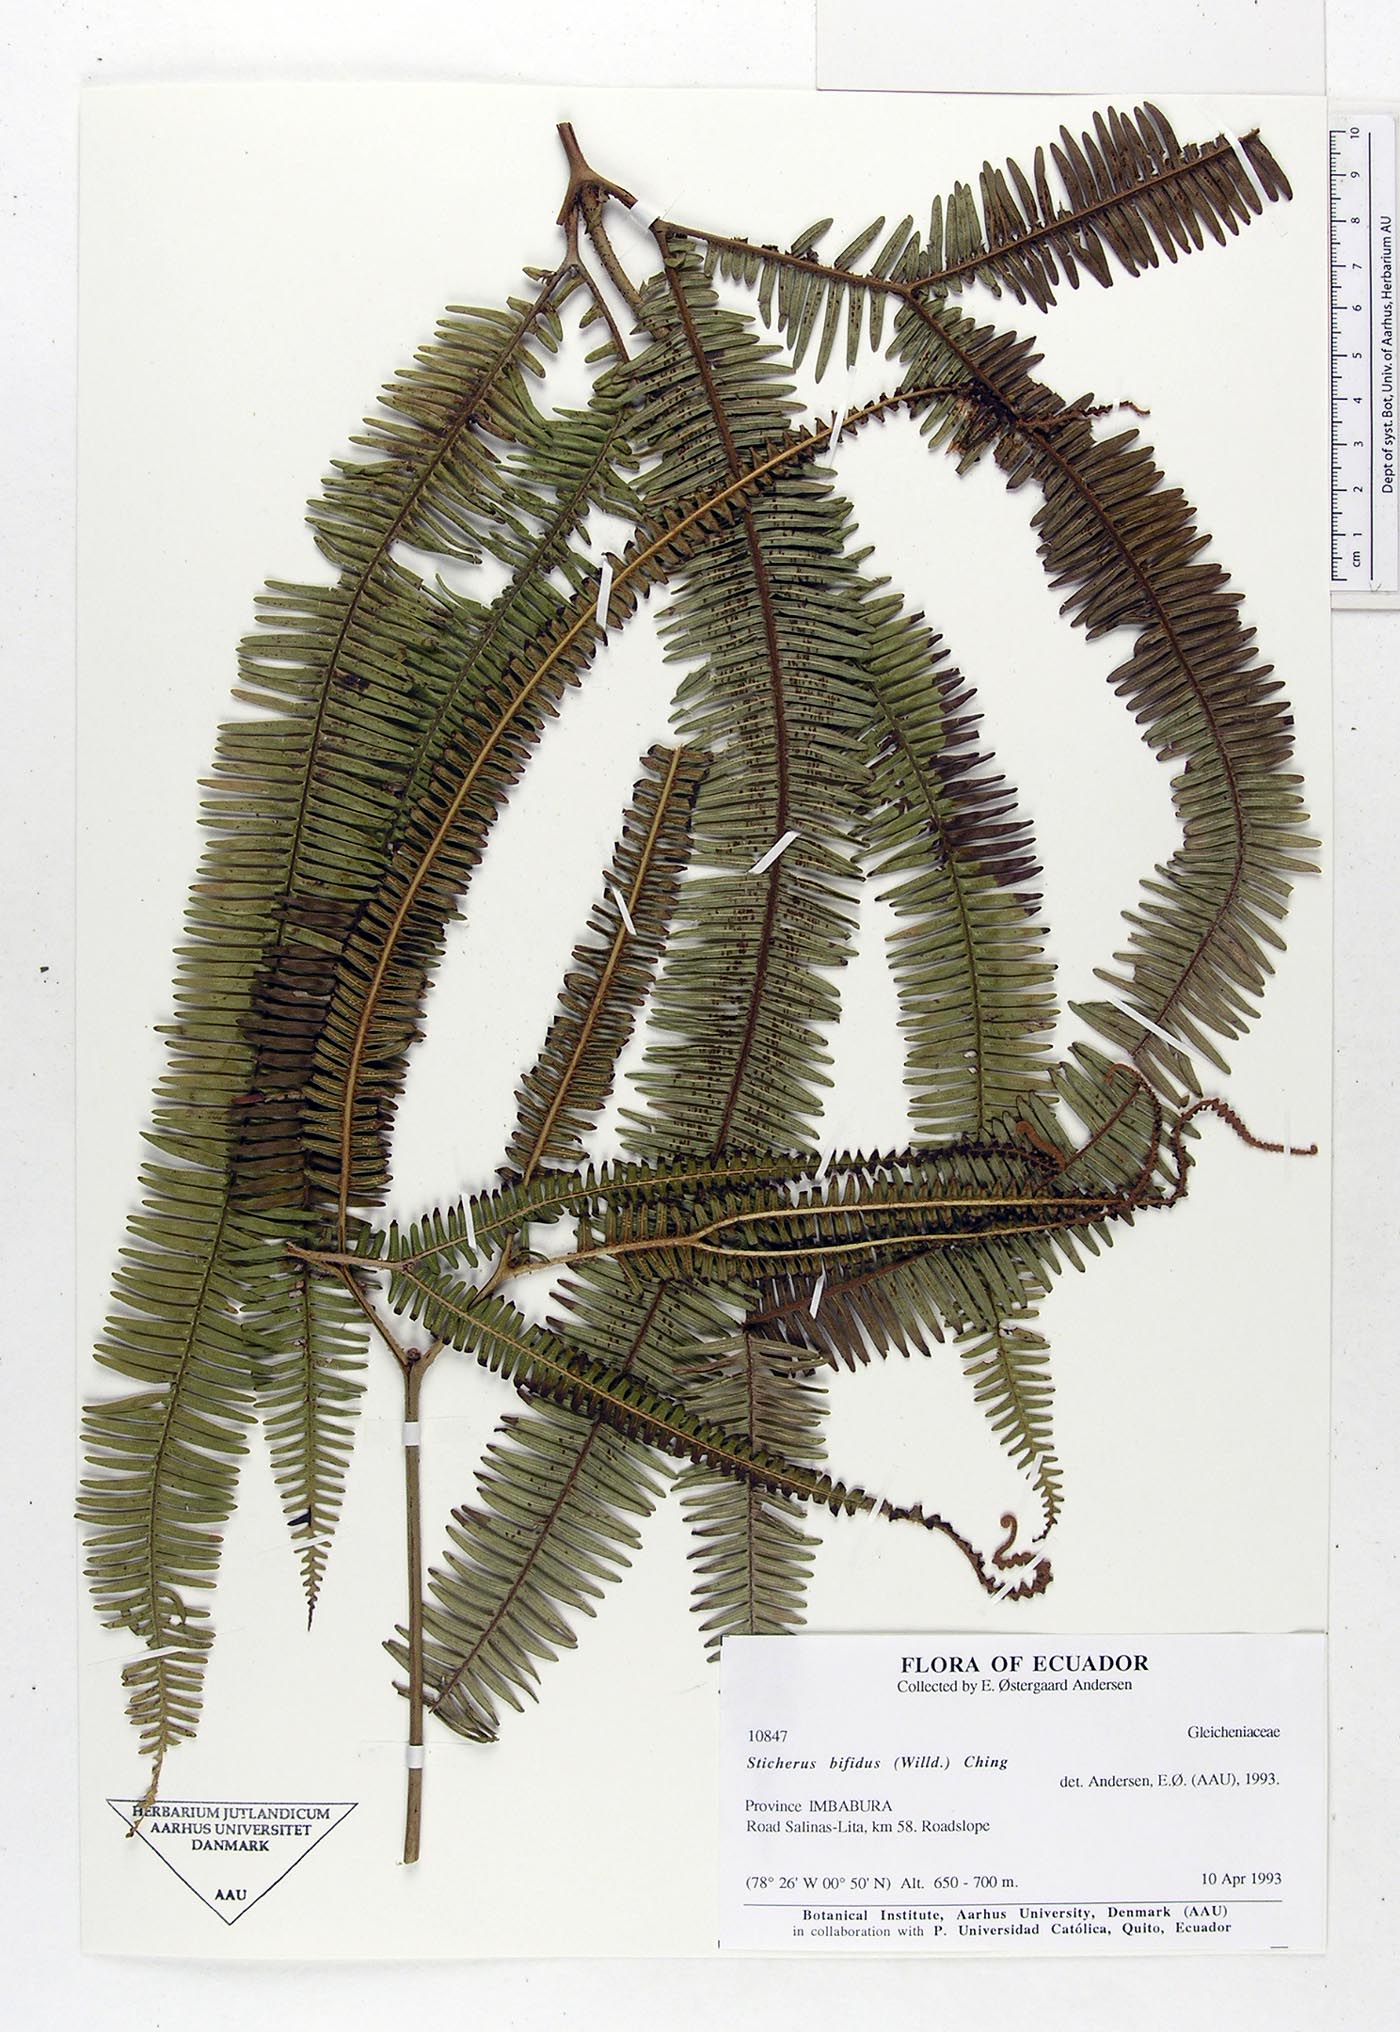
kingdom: Plantae
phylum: Tracheophyta
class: Polypodiopsida
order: Gleicheniales
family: Gleicheniaceae
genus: Sticherus
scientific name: Sticherus bifidus
